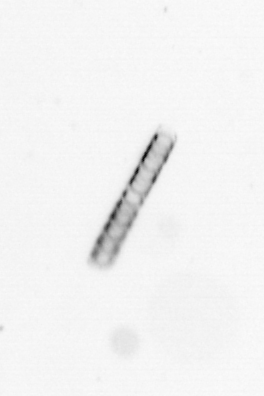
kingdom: Chromista
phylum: Ochrophyta
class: Bacillariophyceae
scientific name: Bacillariophyceae
